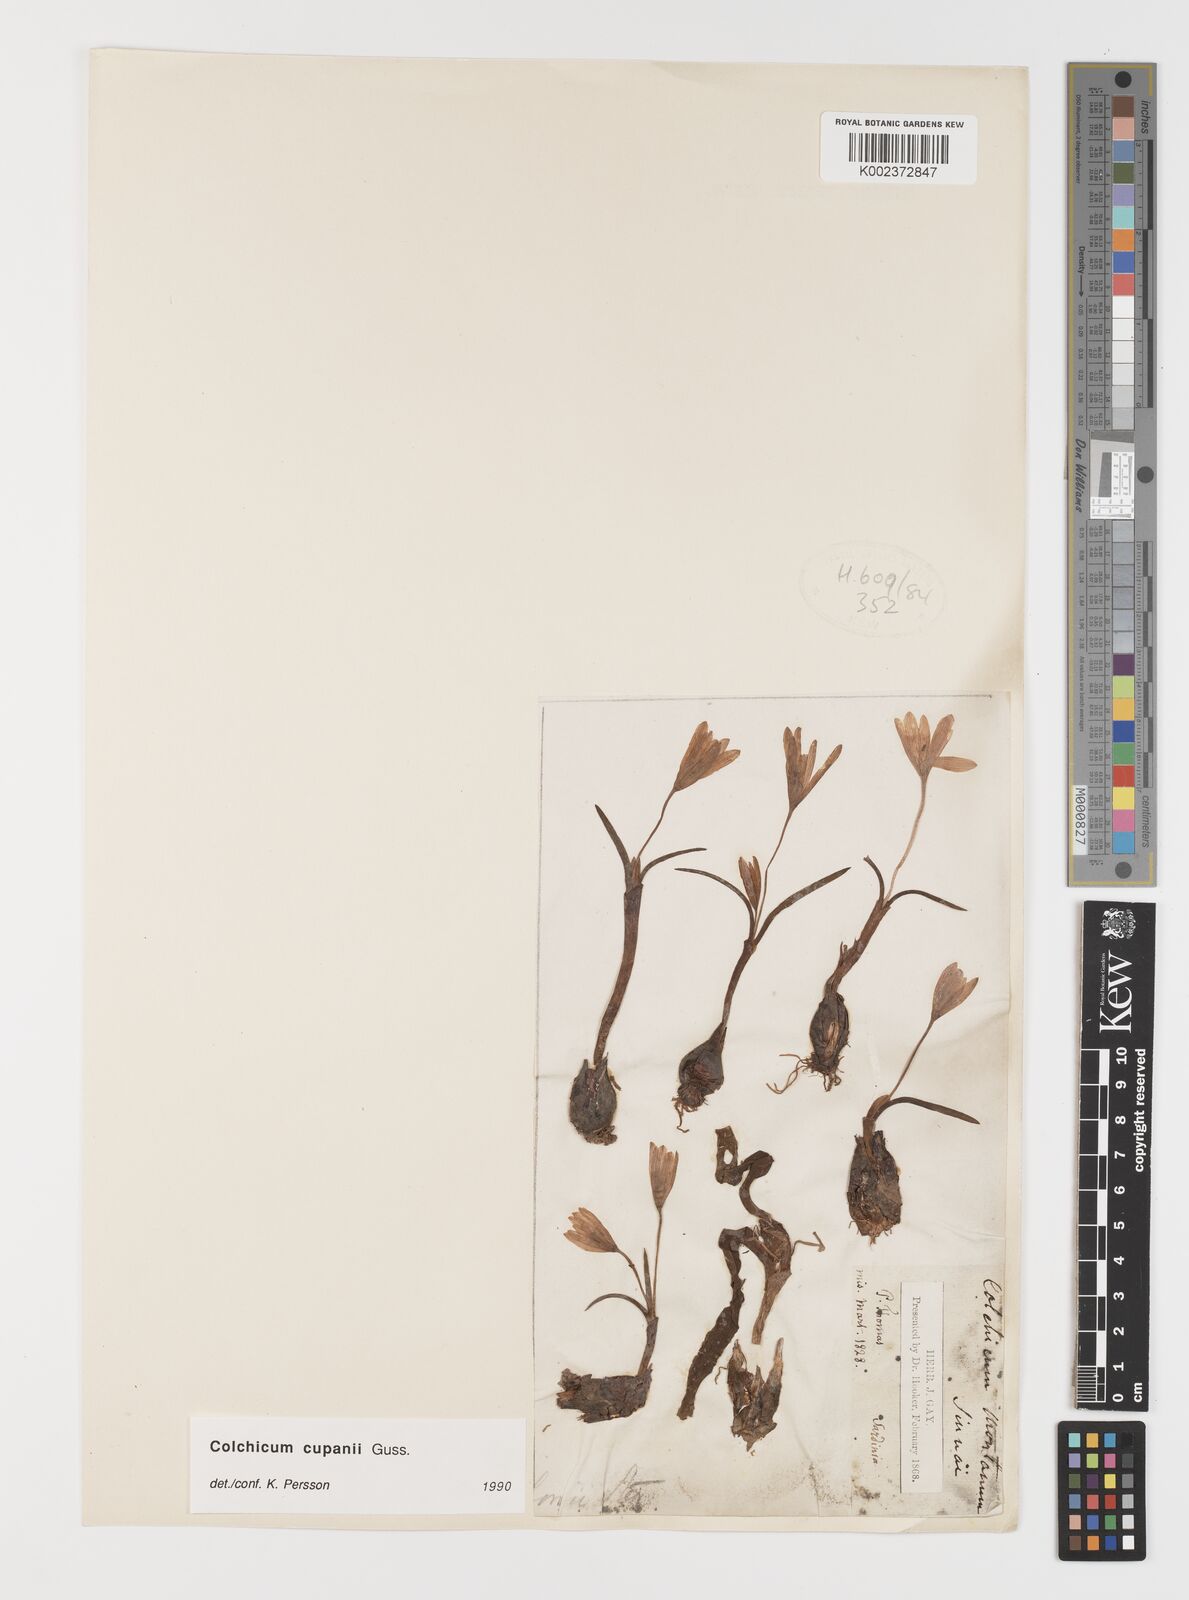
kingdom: Plantae
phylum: Tracheophyta
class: Liliopsida
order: Liliales
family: Colchicaceae
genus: Colchicum
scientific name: Colchicum cupanii
